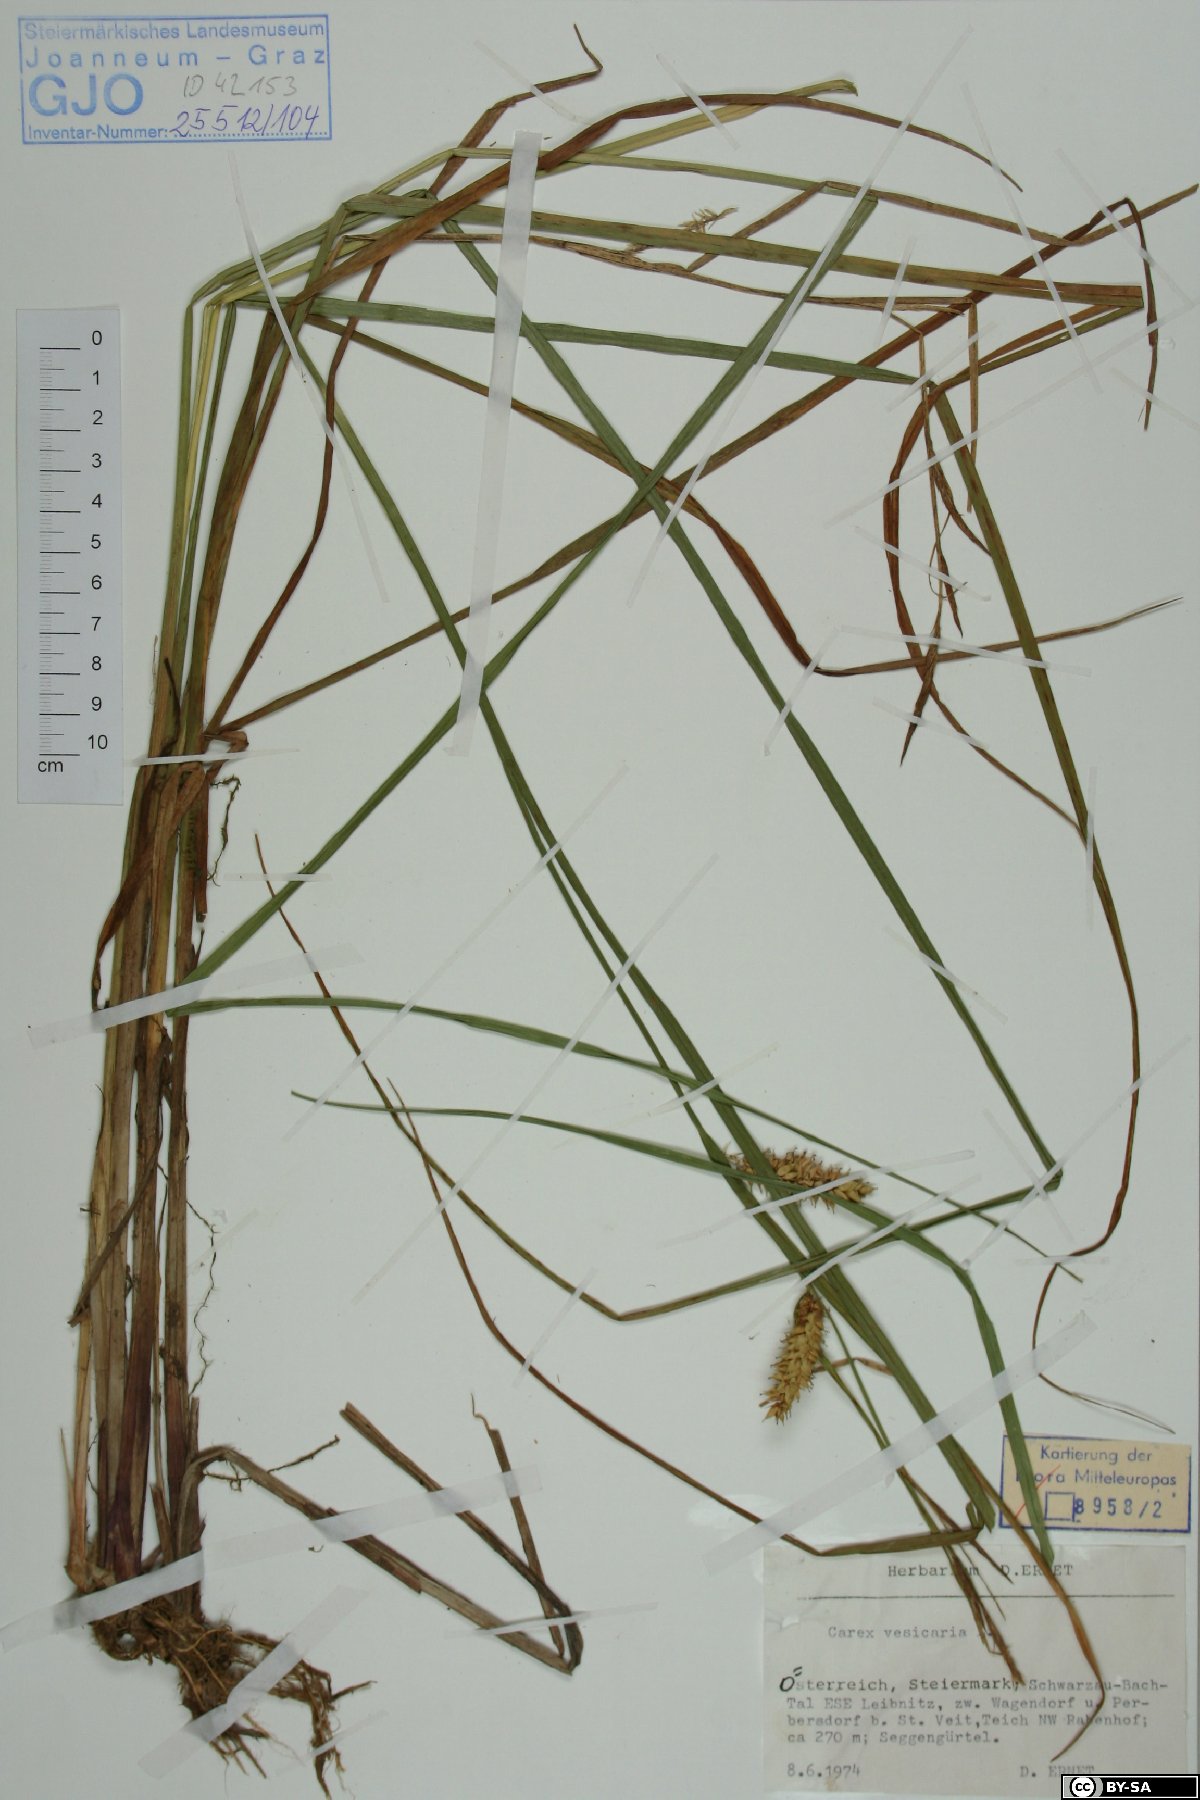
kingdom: Plantae
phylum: Tracheophyta
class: Liliopsida
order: Poales
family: Cyperaceae
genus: Carex
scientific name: Carex vesicaria
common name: Bladder-sedge
